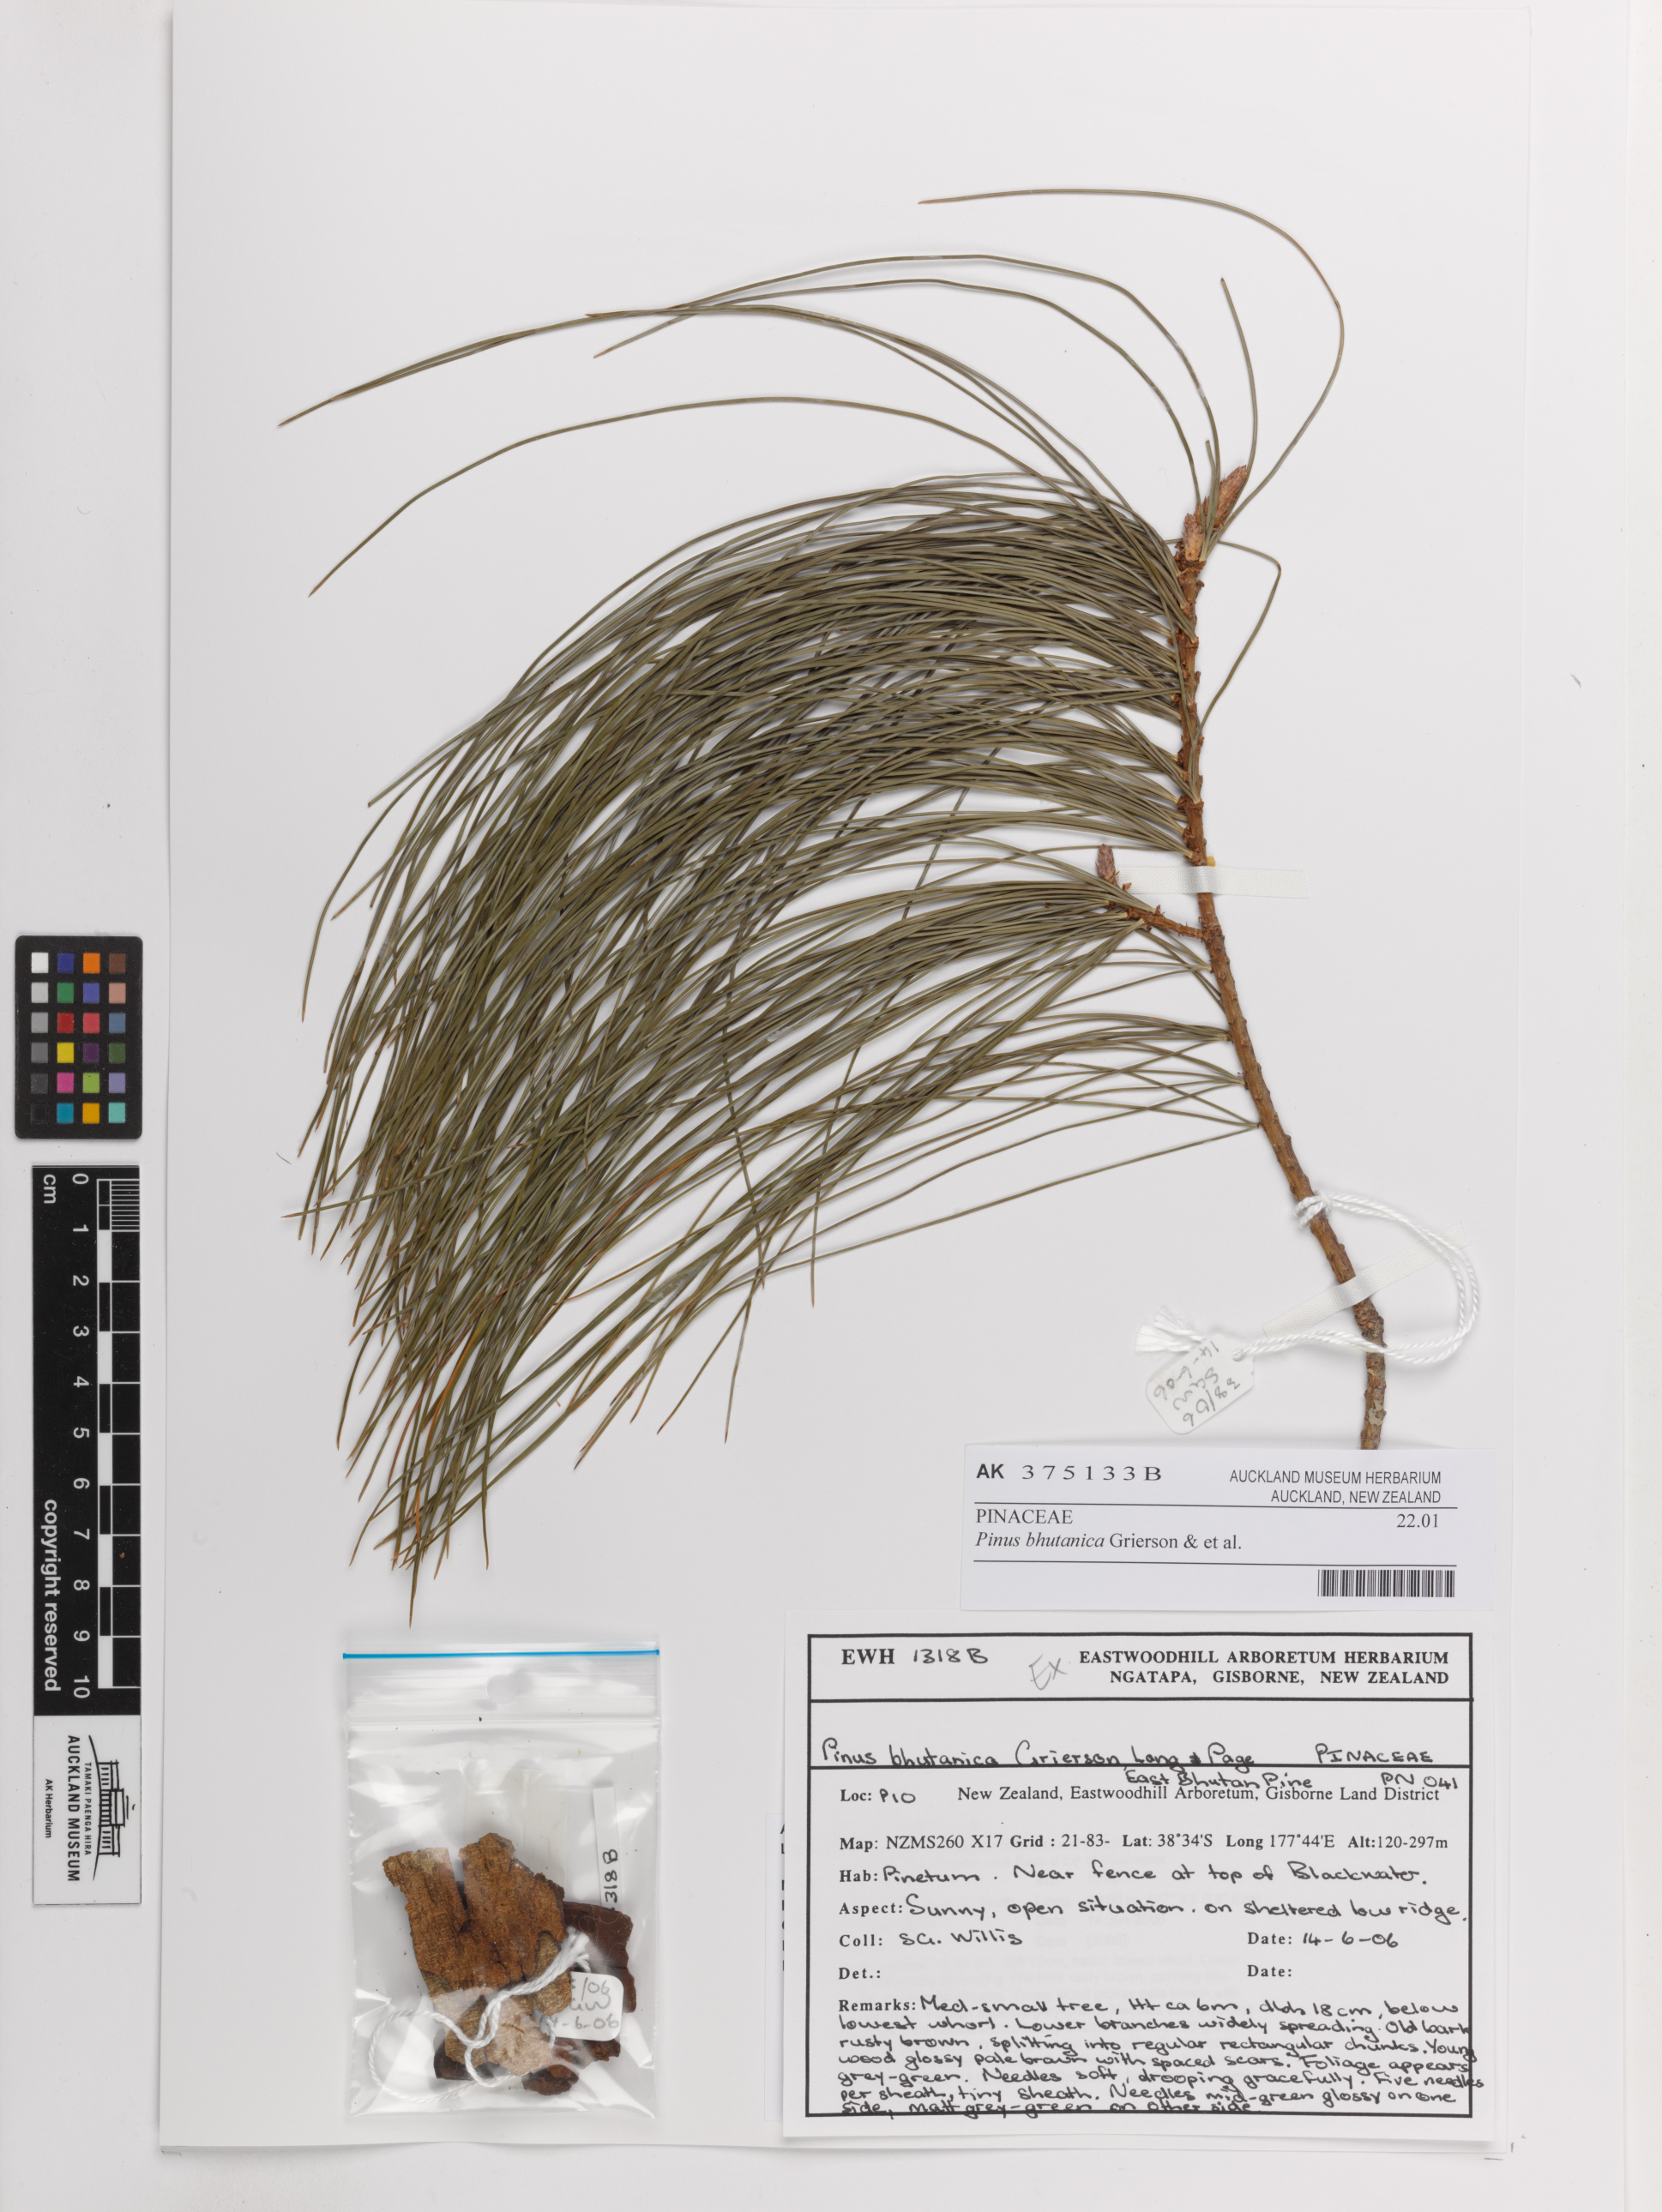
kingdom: Plantae
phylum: Tracheophyta
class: Pinopsida
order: Pinales
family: Pinaceae
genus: Pinus
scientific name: Pinus bhutanica
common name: Bhutan pine
